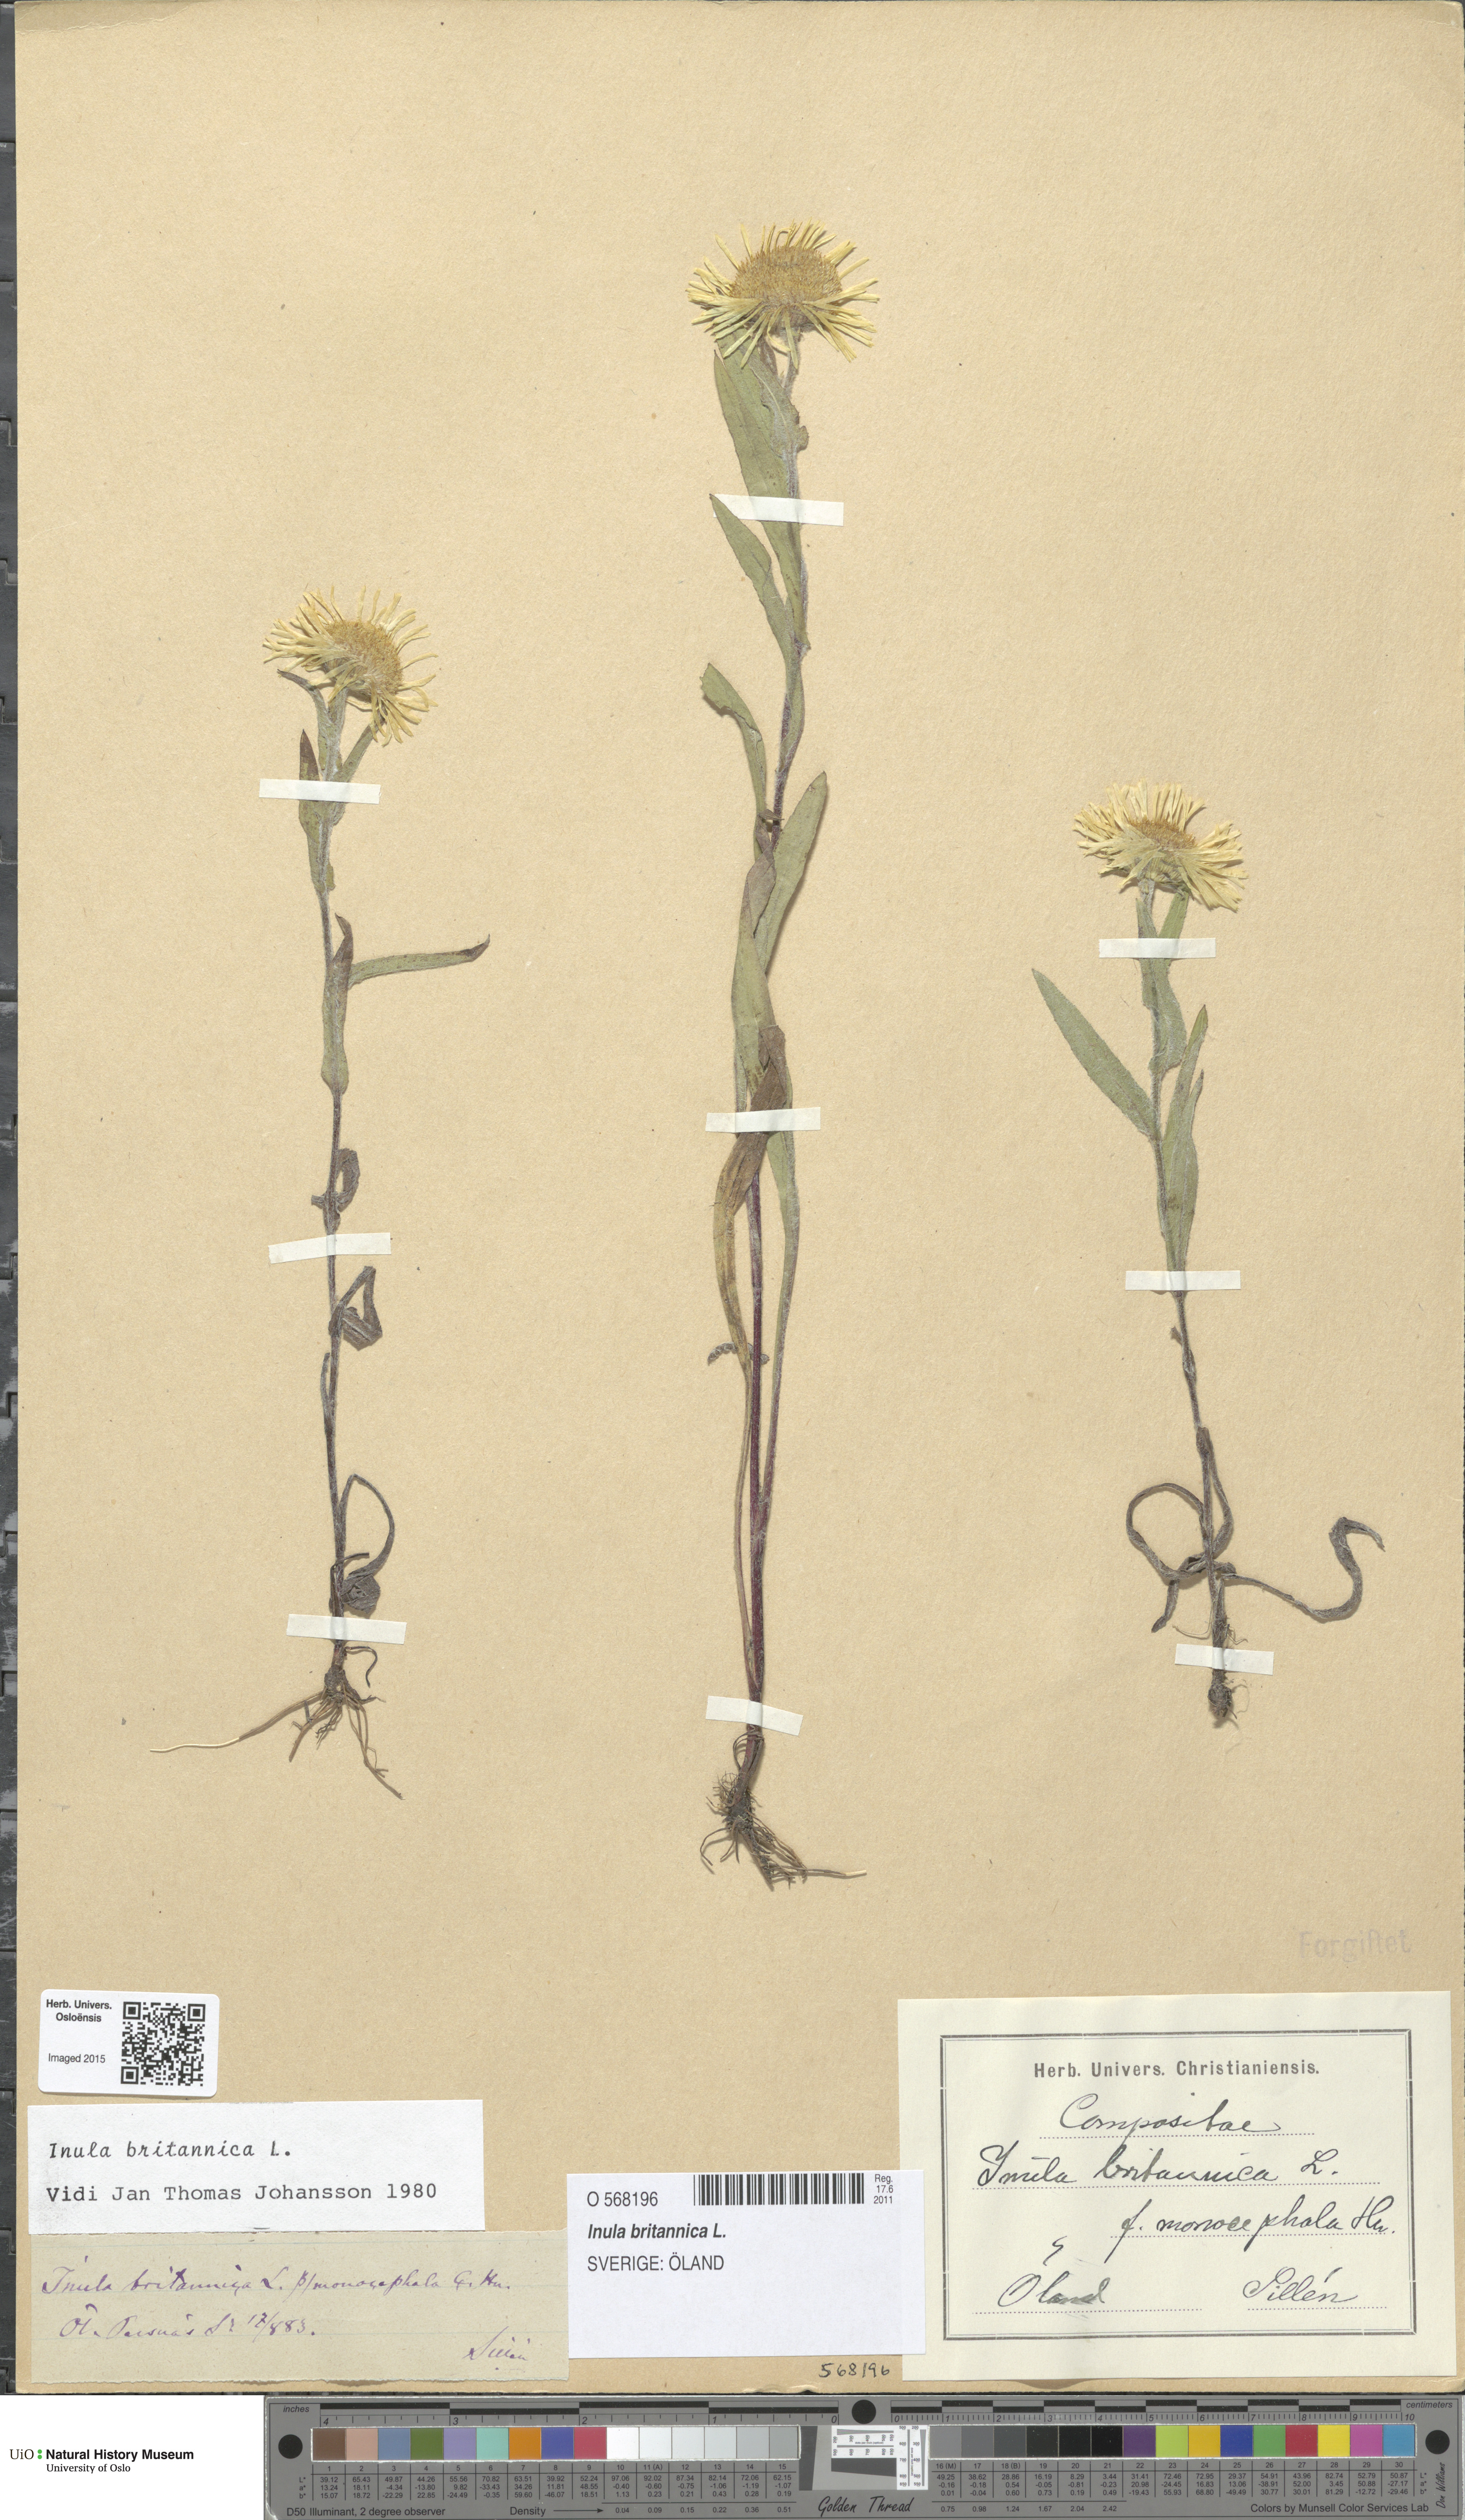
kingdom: Plantae
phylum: Tracheophyta
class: Magnoliopsida
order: Asterales
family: Asteraceae
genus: Pentanema
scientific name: Pentanema britannicum
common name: British elecampane
